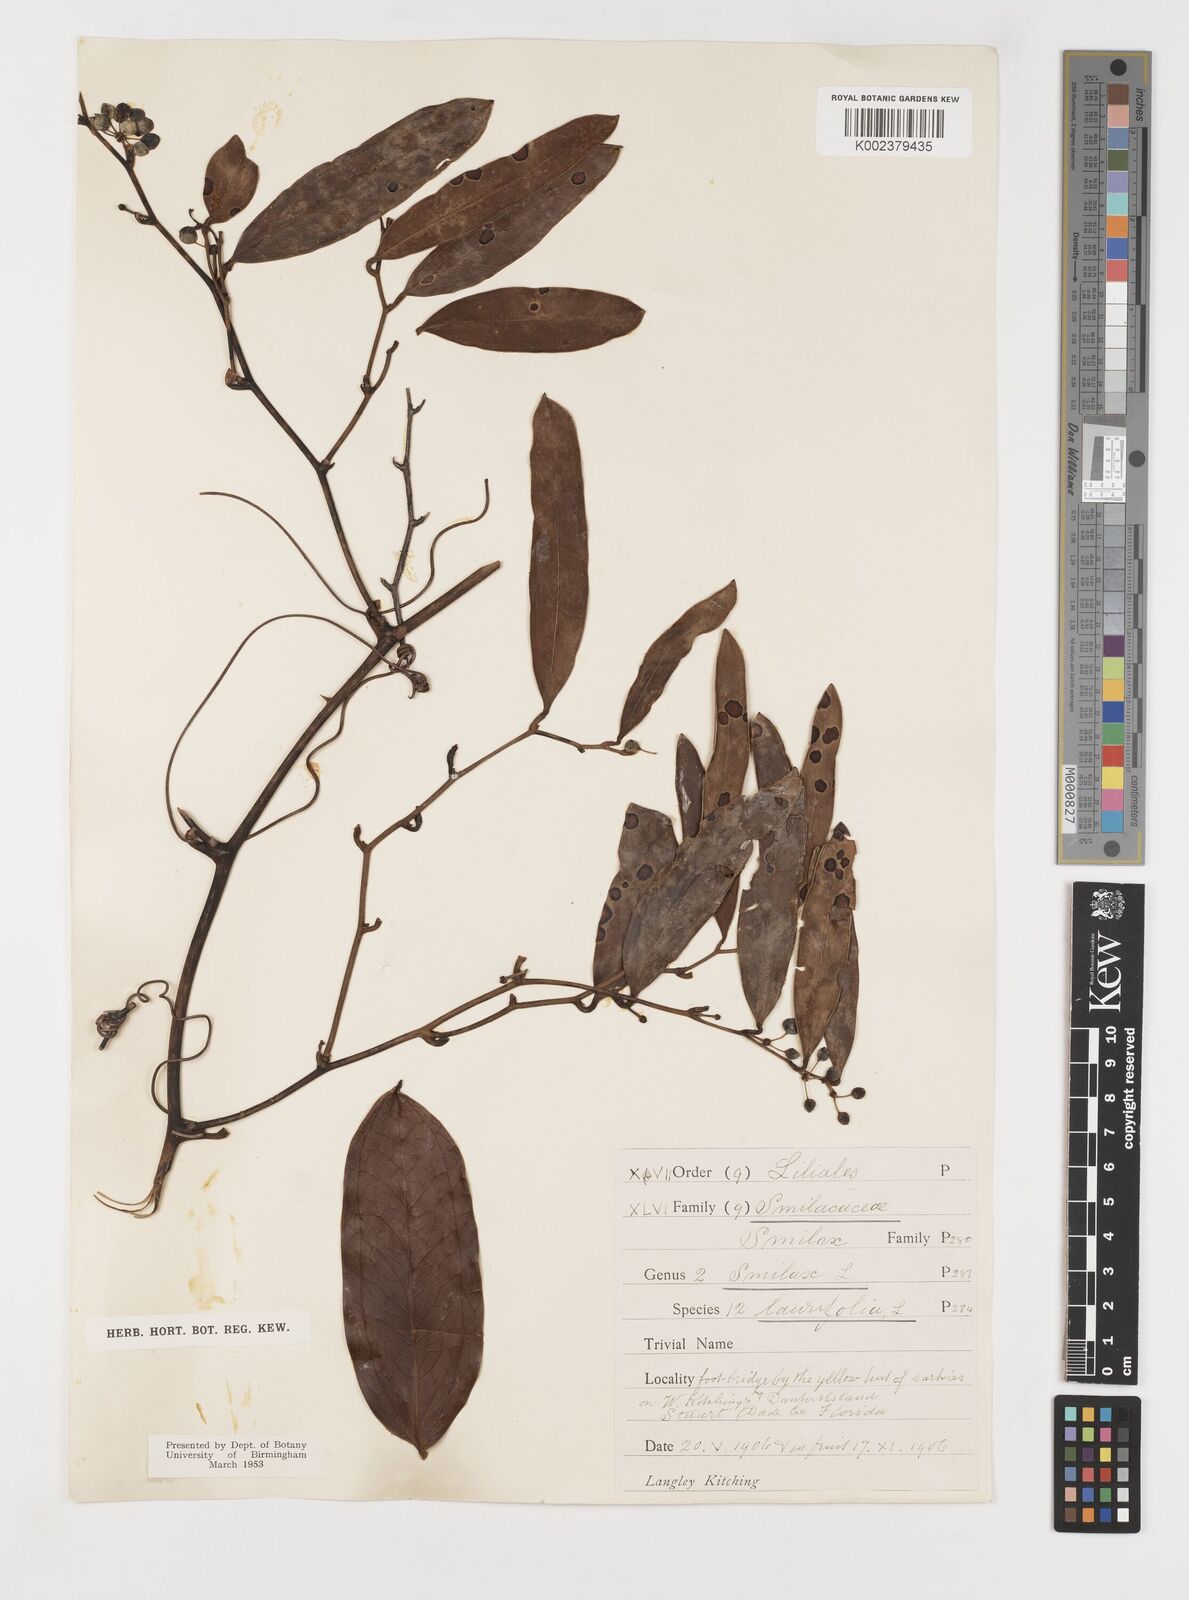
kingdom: Plantae
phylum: Tracheophyta
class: Liliopsida
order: Liliales
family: Smilacaceae
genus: Smilax
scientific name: Smilax laurifolia
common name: Bamboovine
